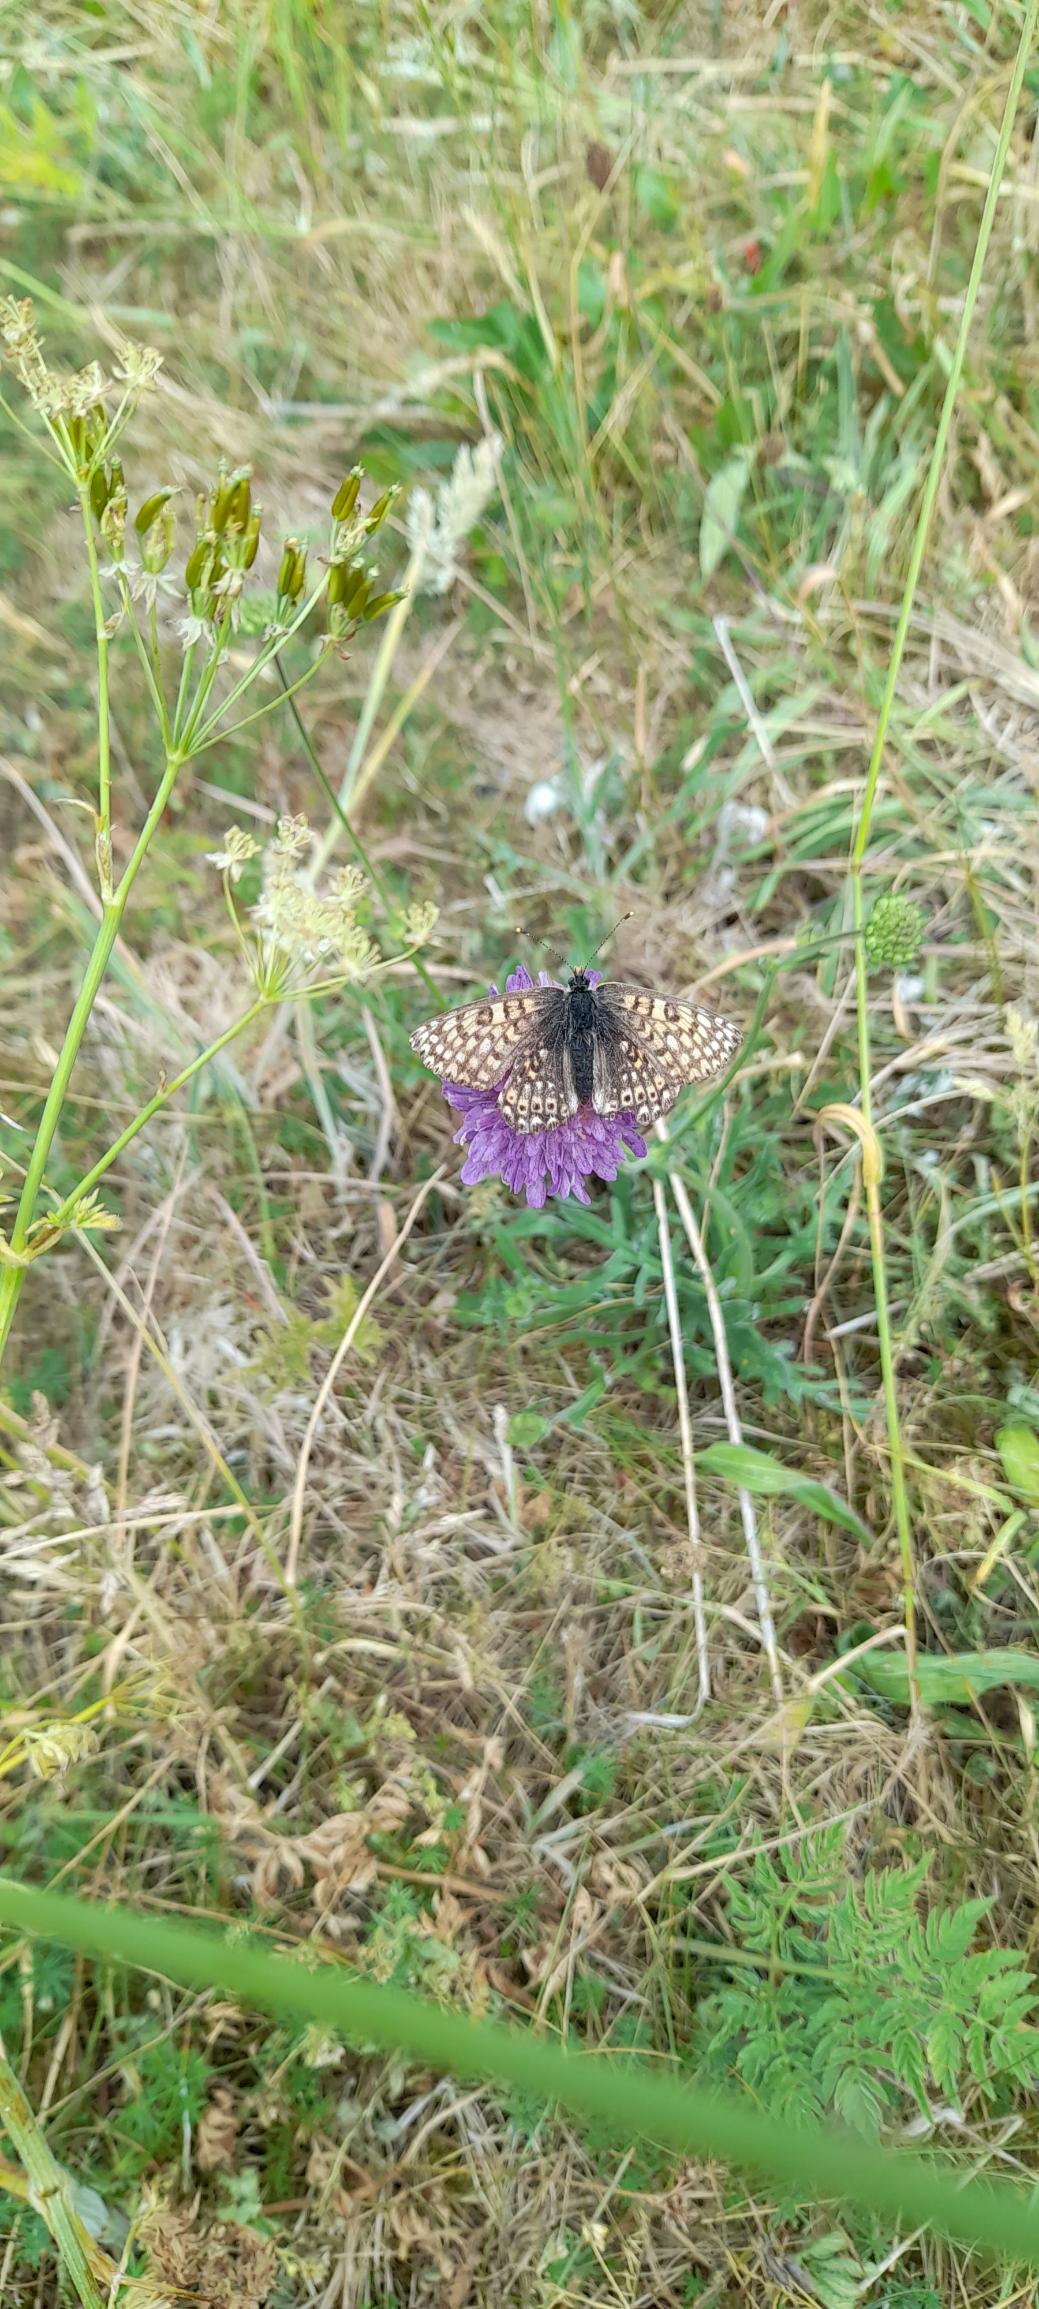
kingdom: Animalia
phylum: Arthropoda
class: Insecta
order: Lepidoptera
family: Nymphalidae
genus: Melitaea
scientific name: Melitaea cinxia
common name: Okkergul pletvinge
